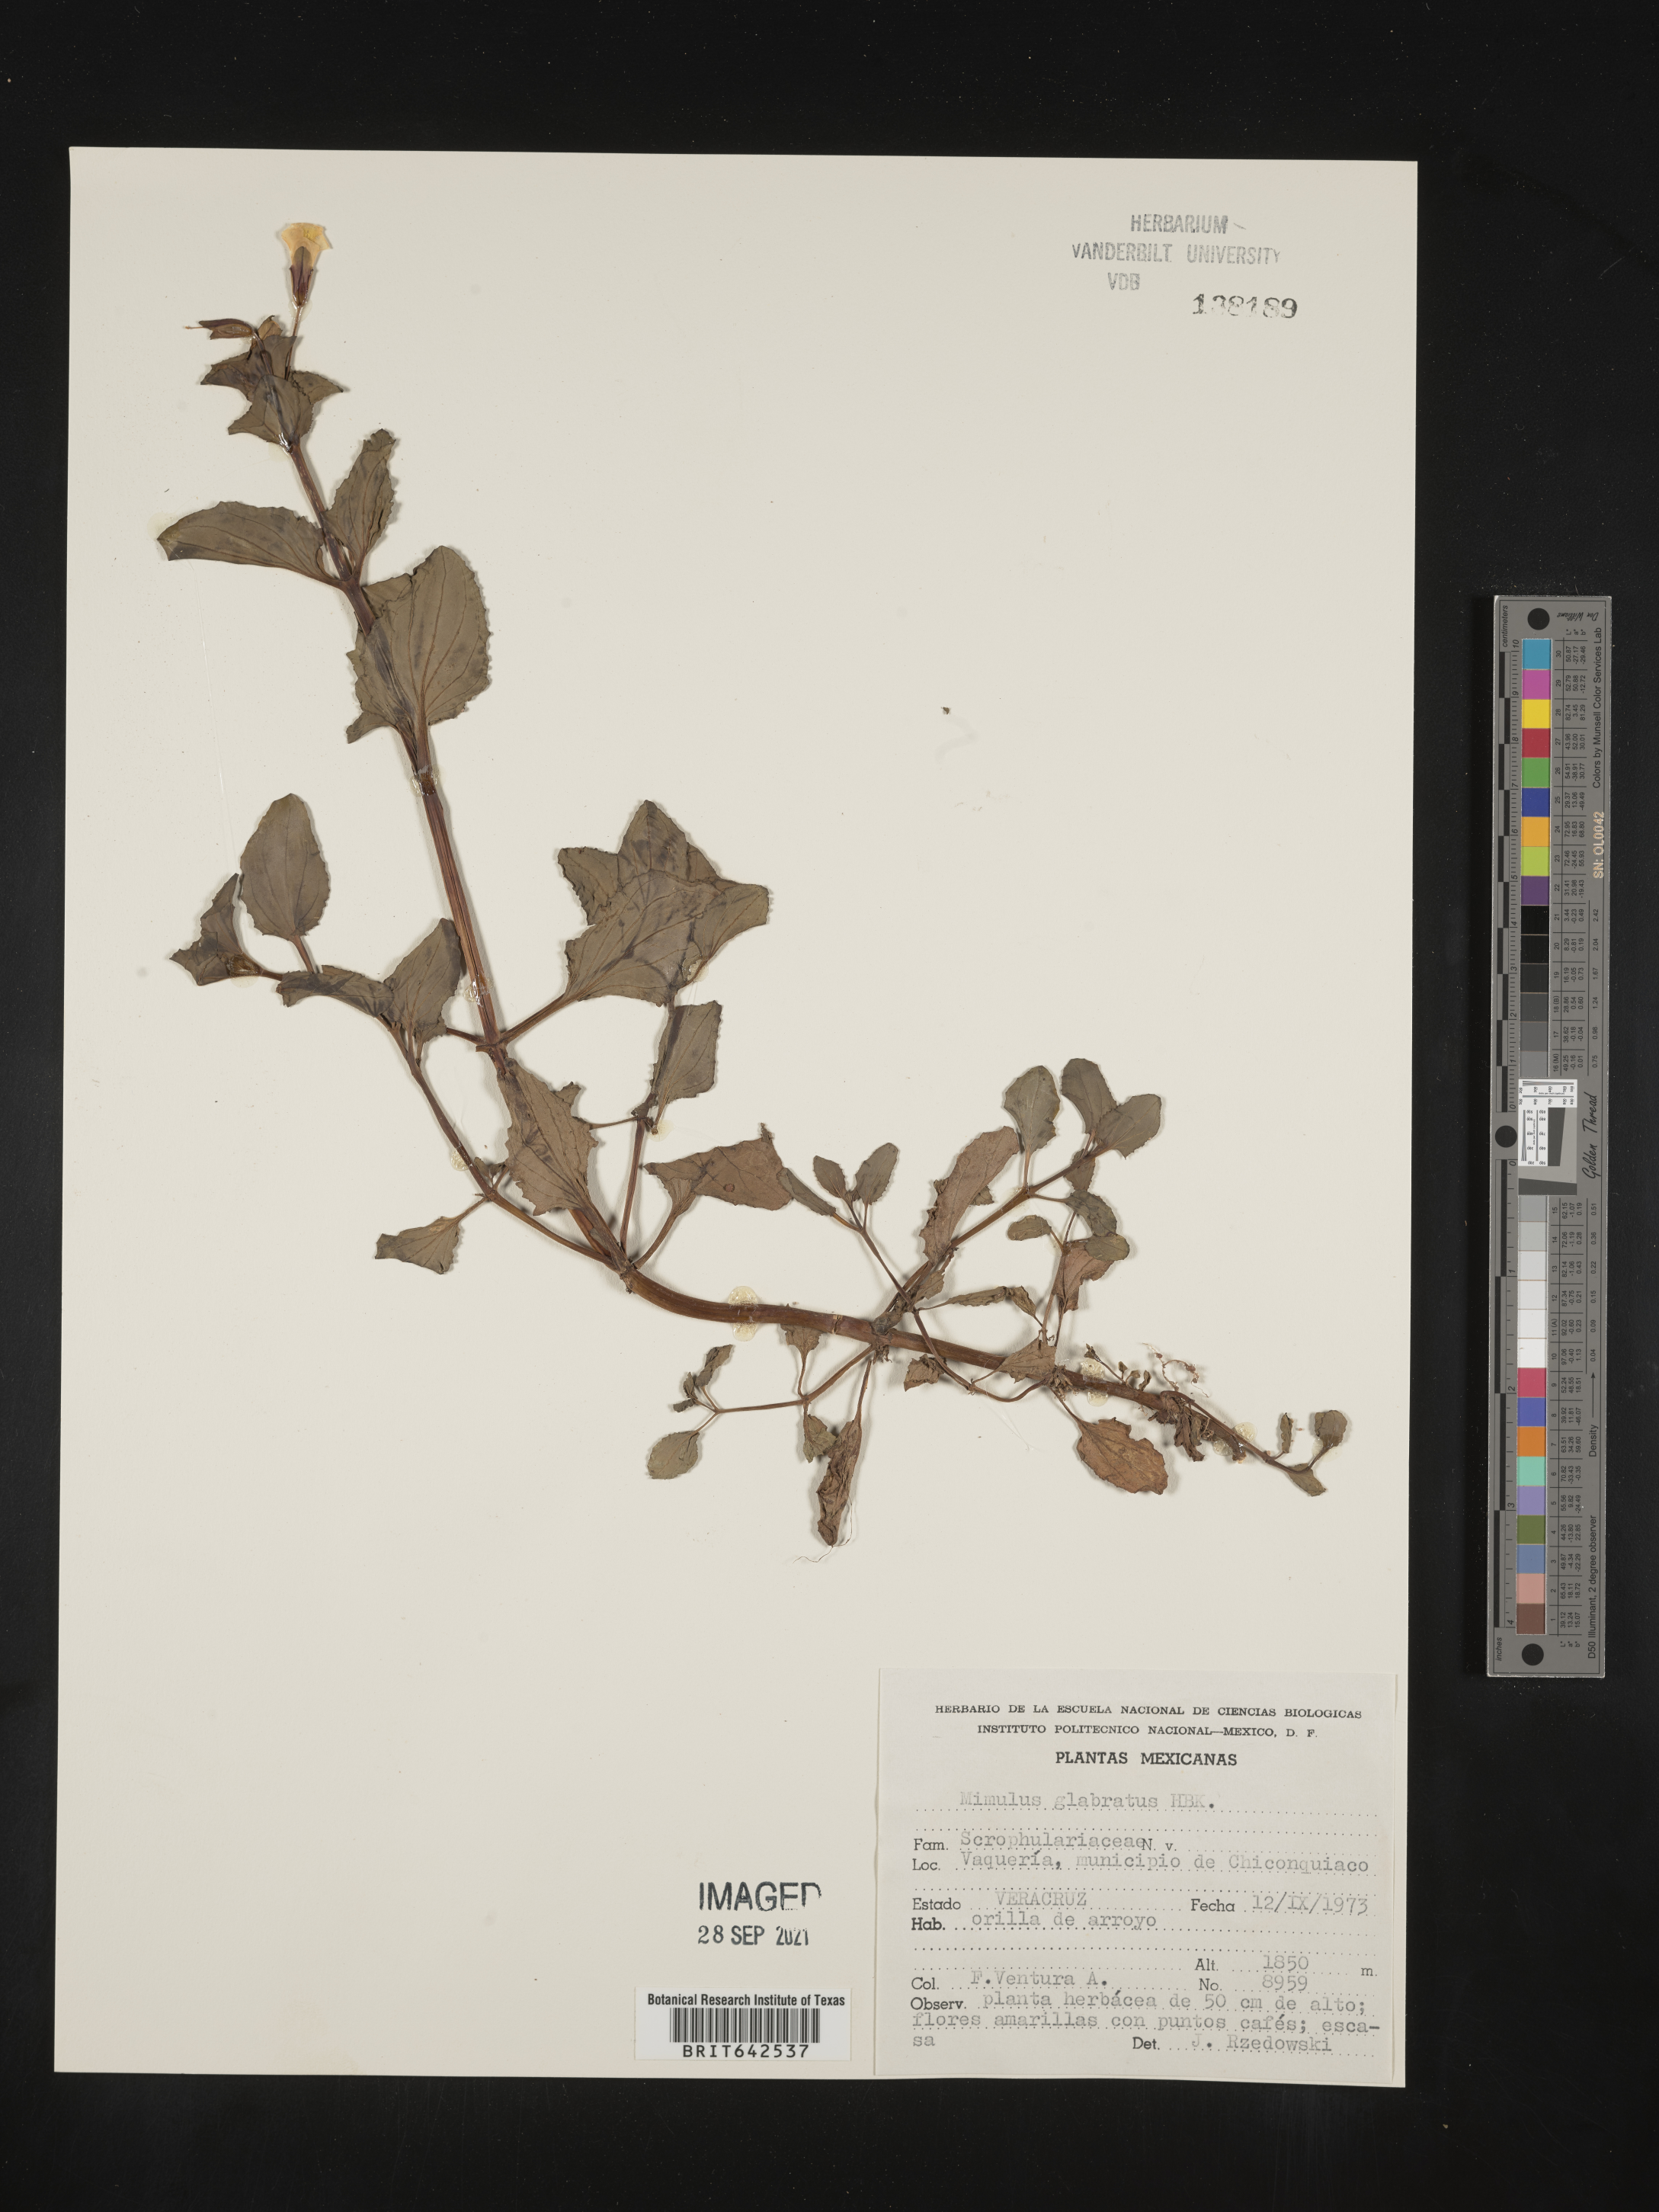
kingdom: Plantae
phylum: Tracheophyta
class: Magnoliopsida
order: Lamiales
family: Phrymaceae
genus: Mimulus
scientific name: Mimulus
